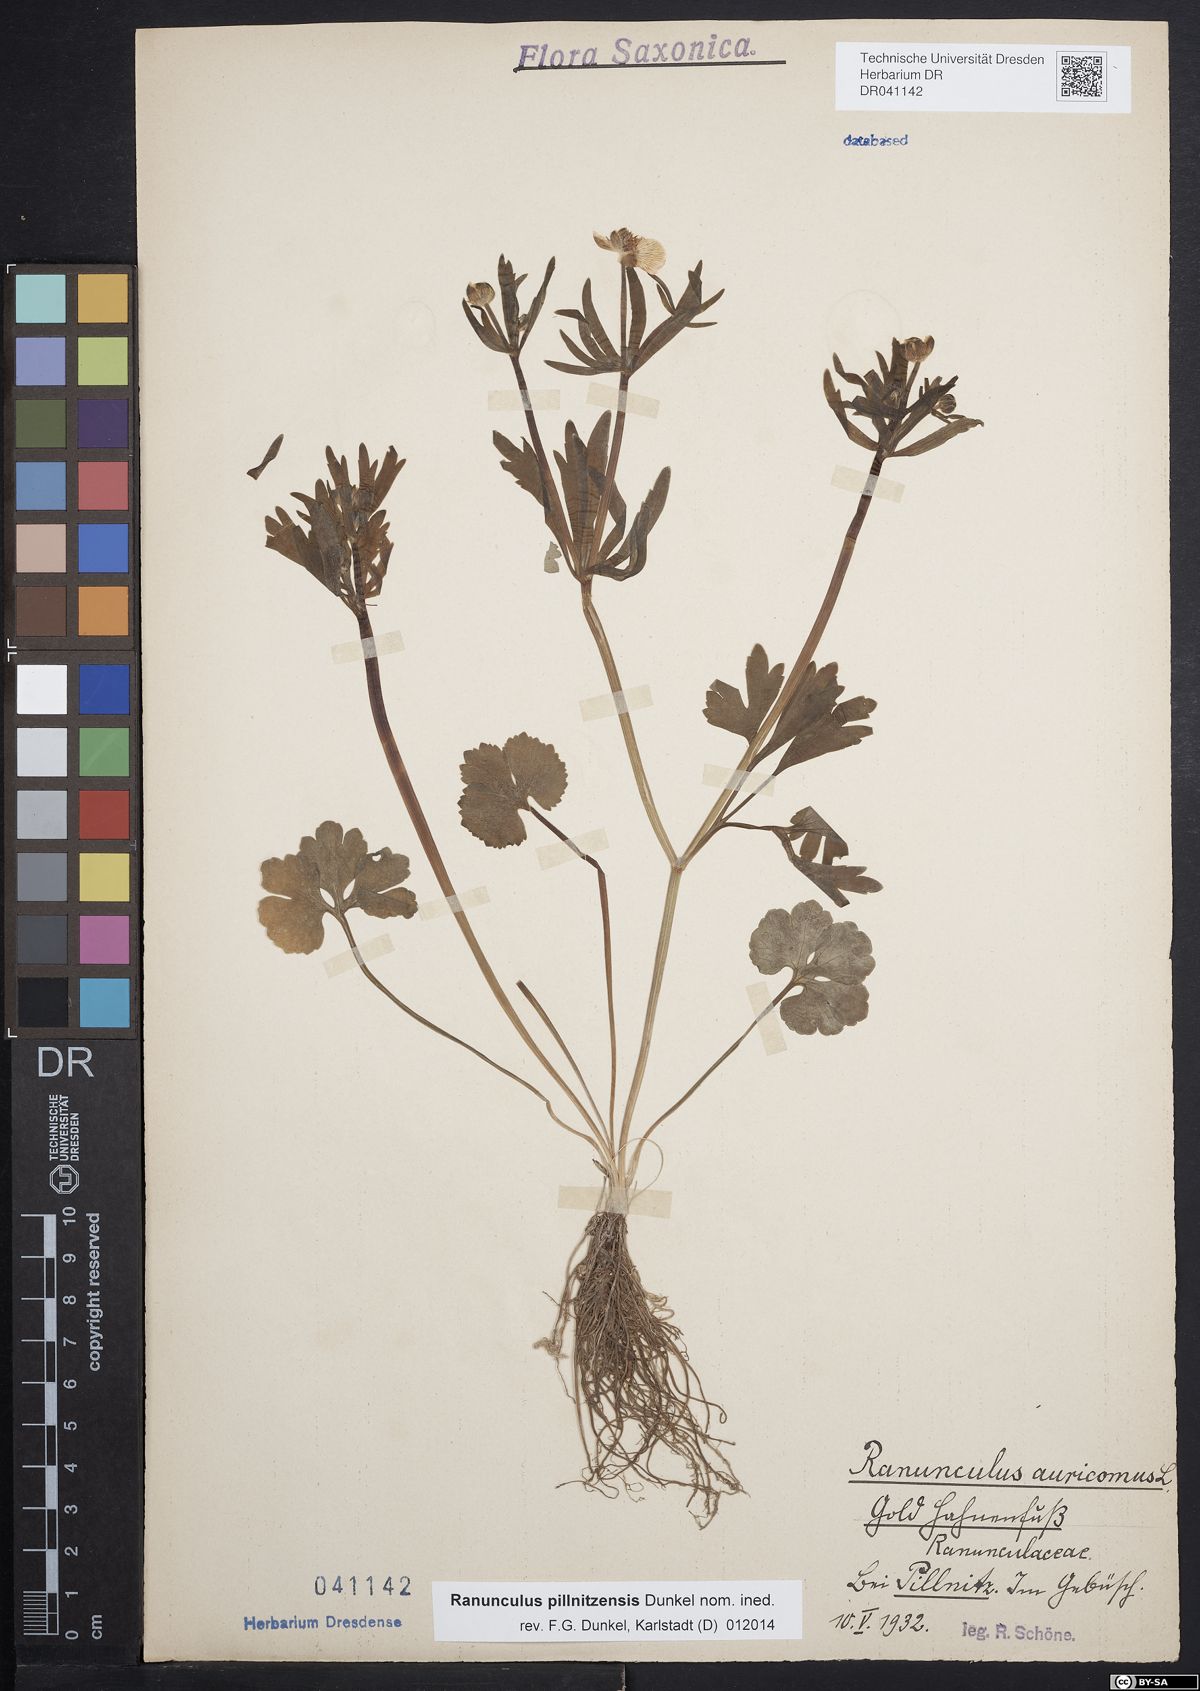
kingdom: Plantae
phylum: Tracheophyta
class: Magnoliopsida
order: Ranunculales
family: Ranunculaceae
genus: Ranunculus
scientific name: Ranunculus pillnitzensis
